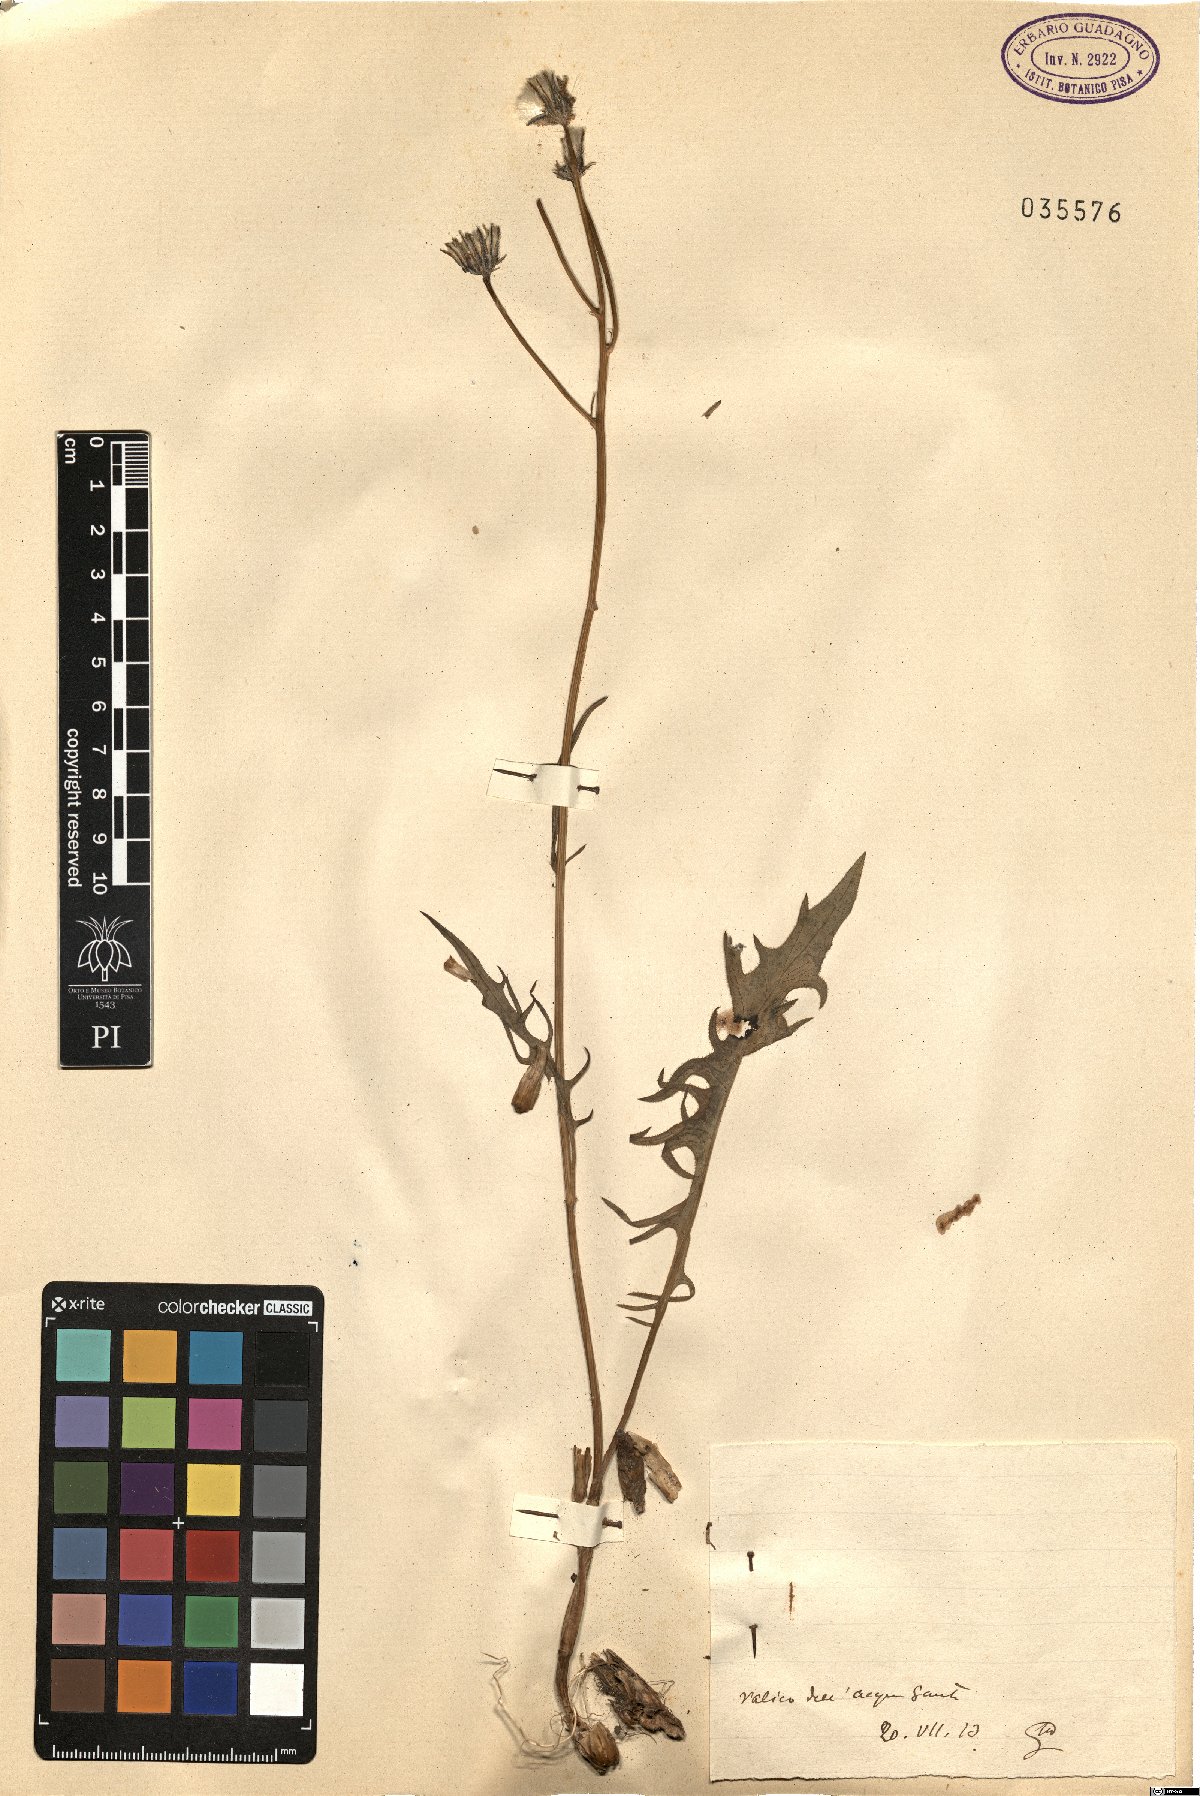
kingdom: Plantae
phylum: Tracheophyta
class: Magnoliopsida
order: Asterales
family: Asteraceae
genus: Crepis
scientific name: Crepis
